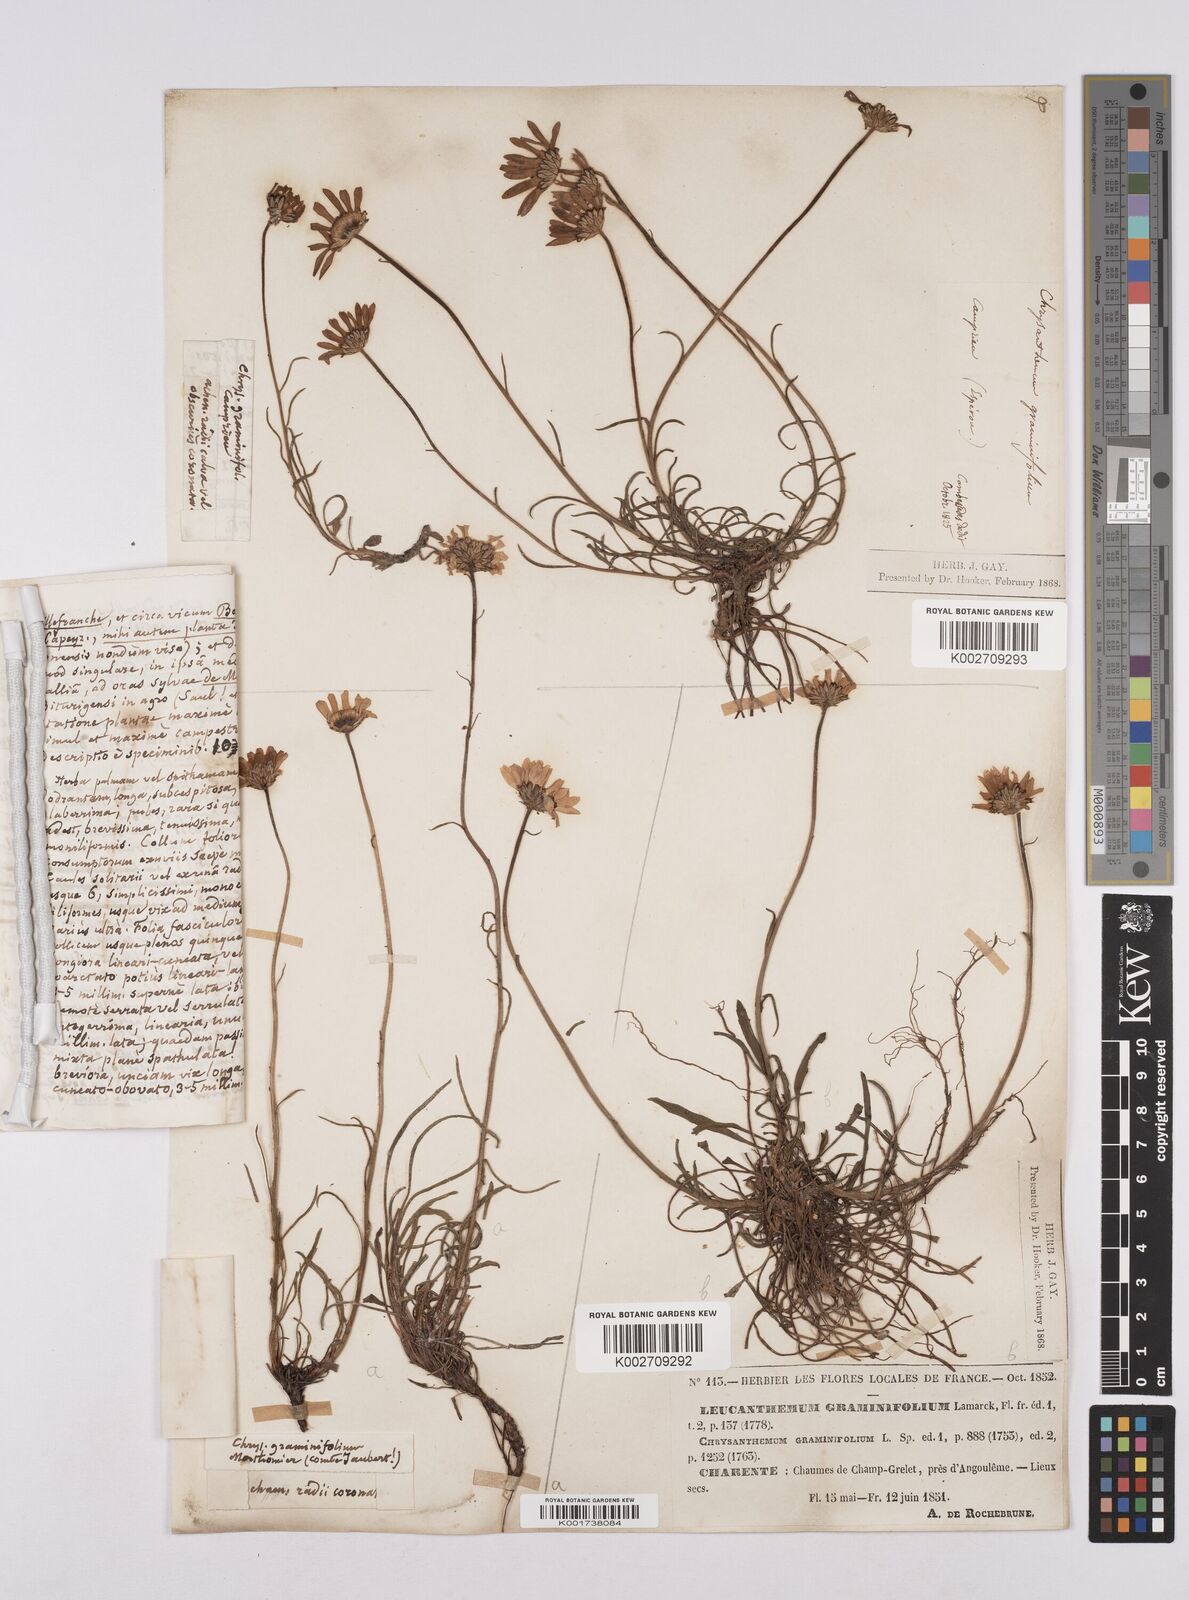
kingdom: Plantae
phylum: Tracheophyta
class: Magnoliopsida
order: Asterales
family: Asteraceae
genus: Leucanthemum
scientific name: Leucanthemum chloroticum
